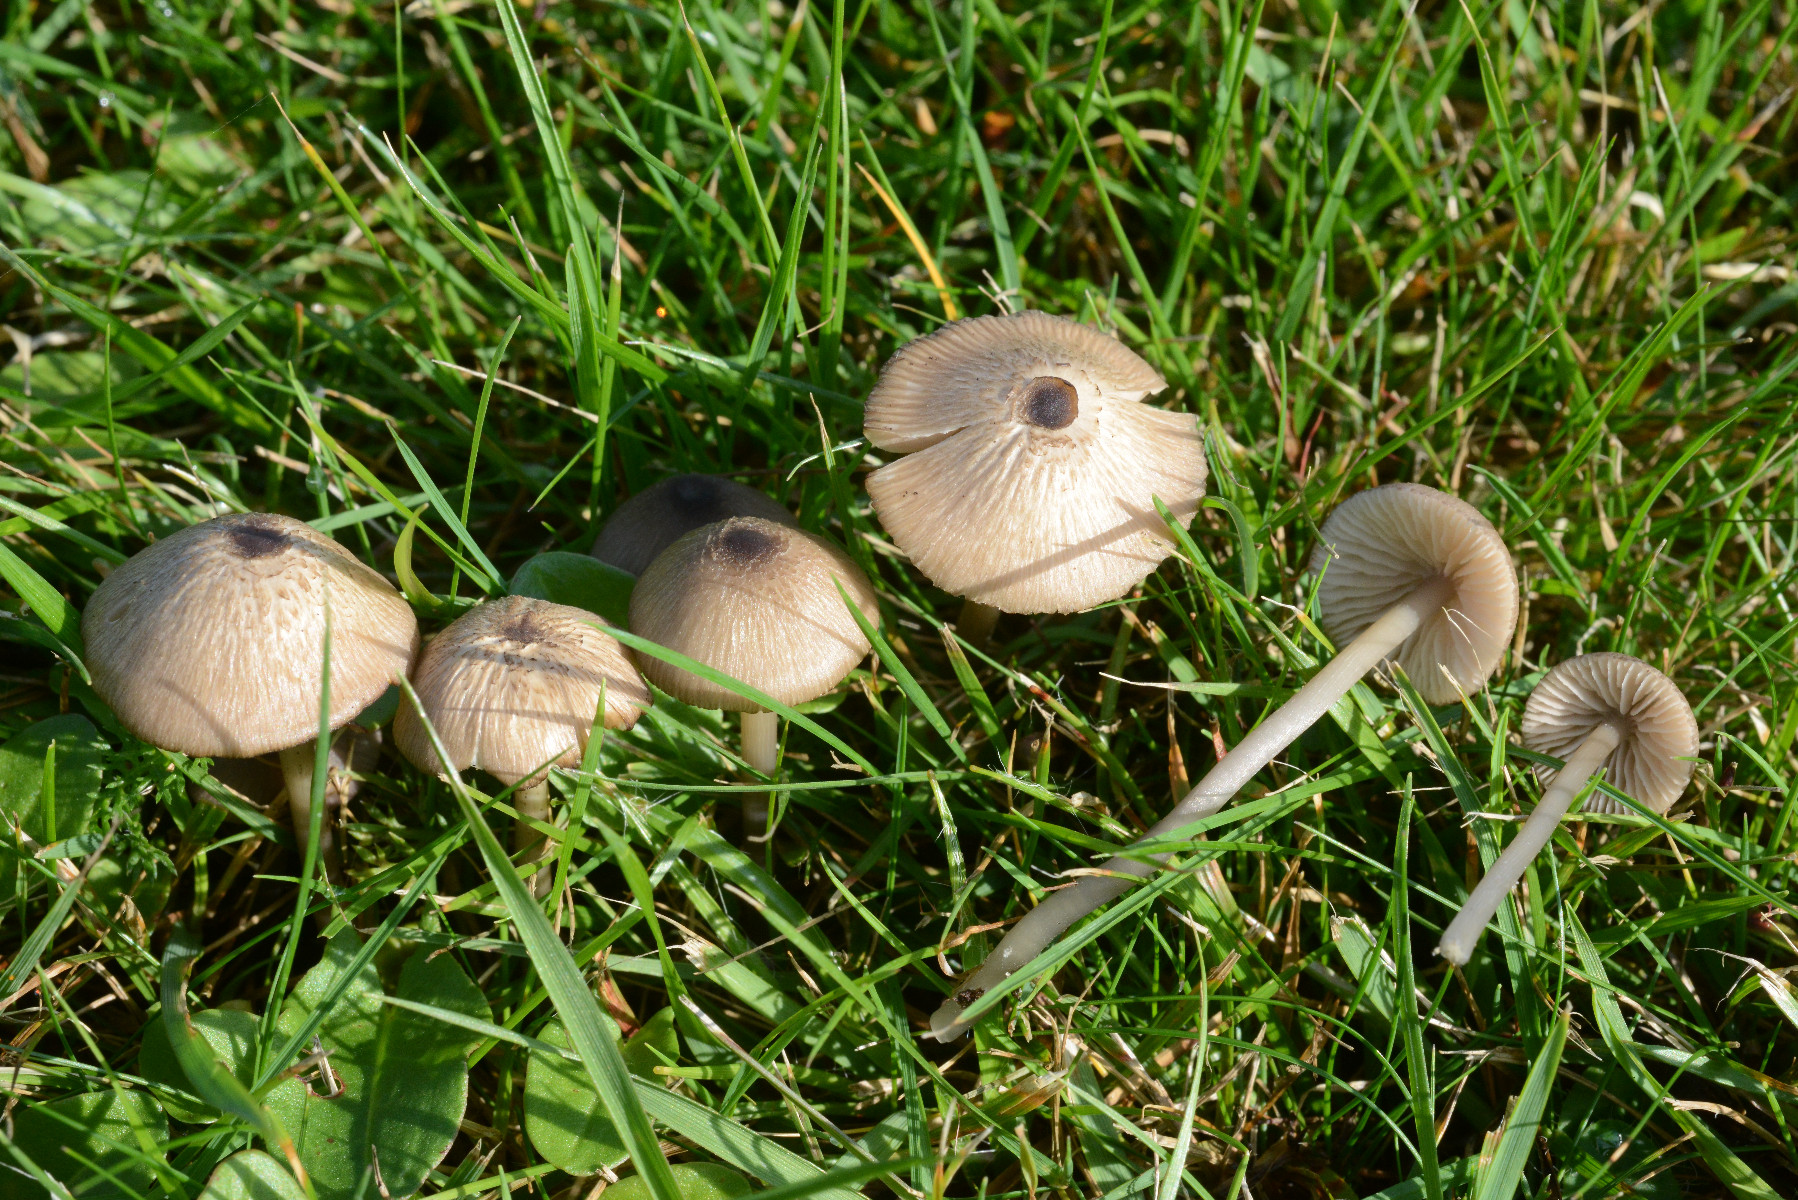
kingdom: Fungi
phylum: Basidiomycota
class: Agaricomycetes
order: Agaricales
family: Entolomataceae
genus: Entoloma
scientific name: Entoloma exile
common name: rødplettet rødblad
